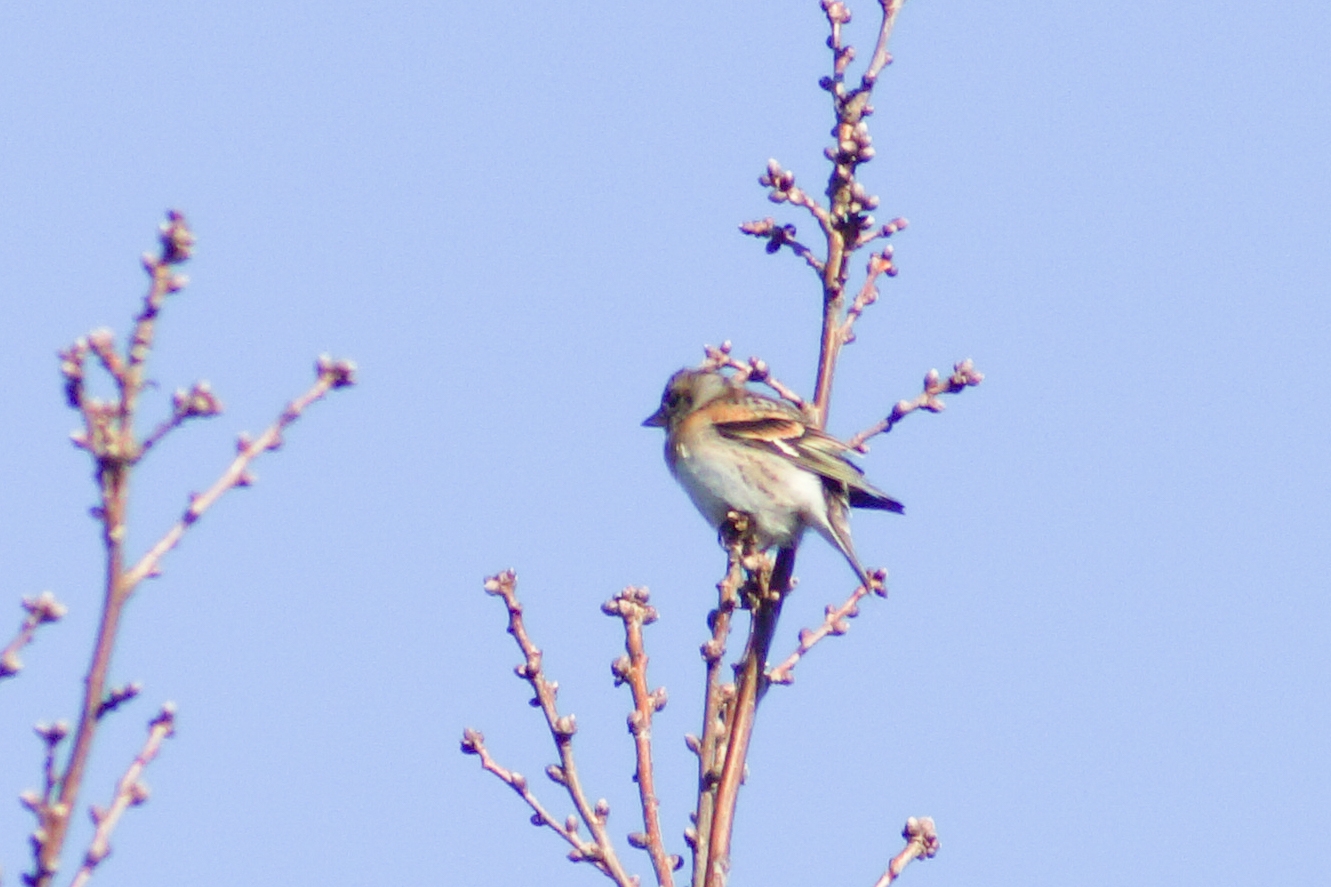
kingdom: Animalia
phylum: Chordata
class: Aves
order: Passeriformes
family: Fringillidae
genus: Fringilla
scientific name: Fringilla montifringilla
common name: Kvækerfinke
